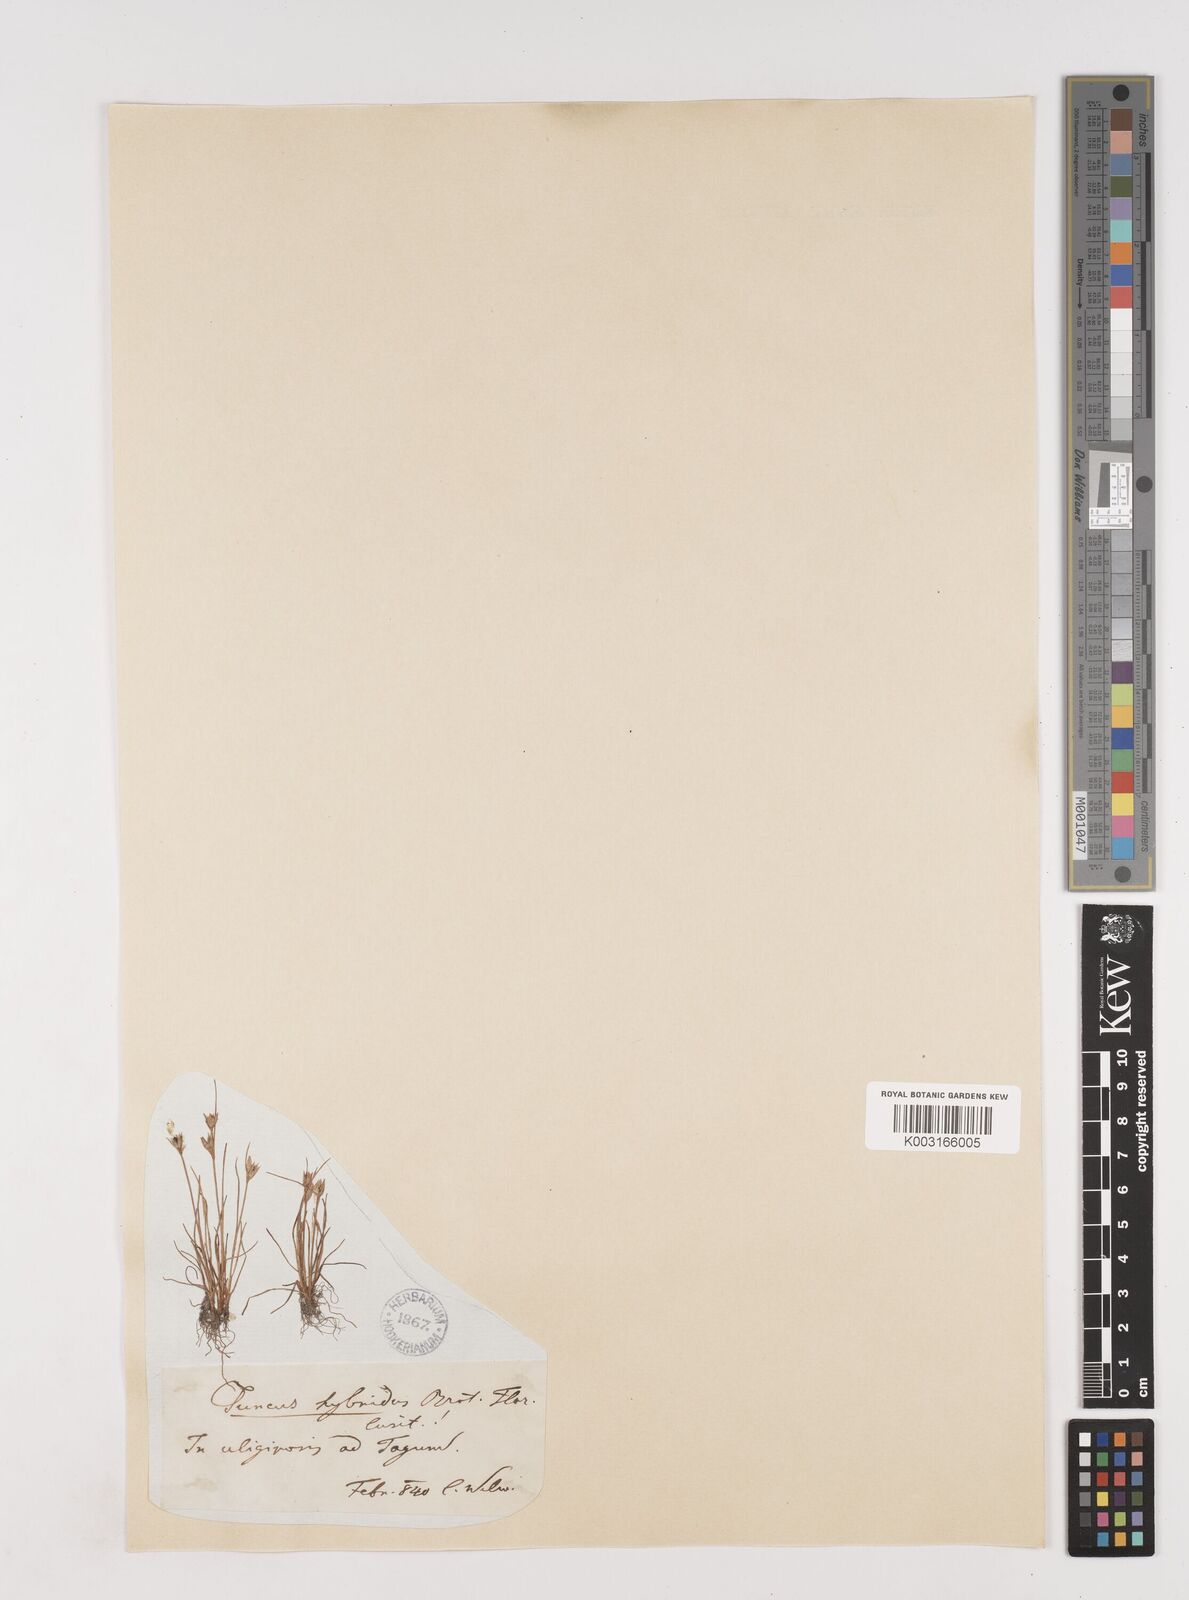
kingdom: Plantae
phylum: Tracheophyta
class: Liliopsida
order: Poales
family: Juncaceae
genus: Juncus
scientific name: Juncus bufonius
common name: Toad rush
